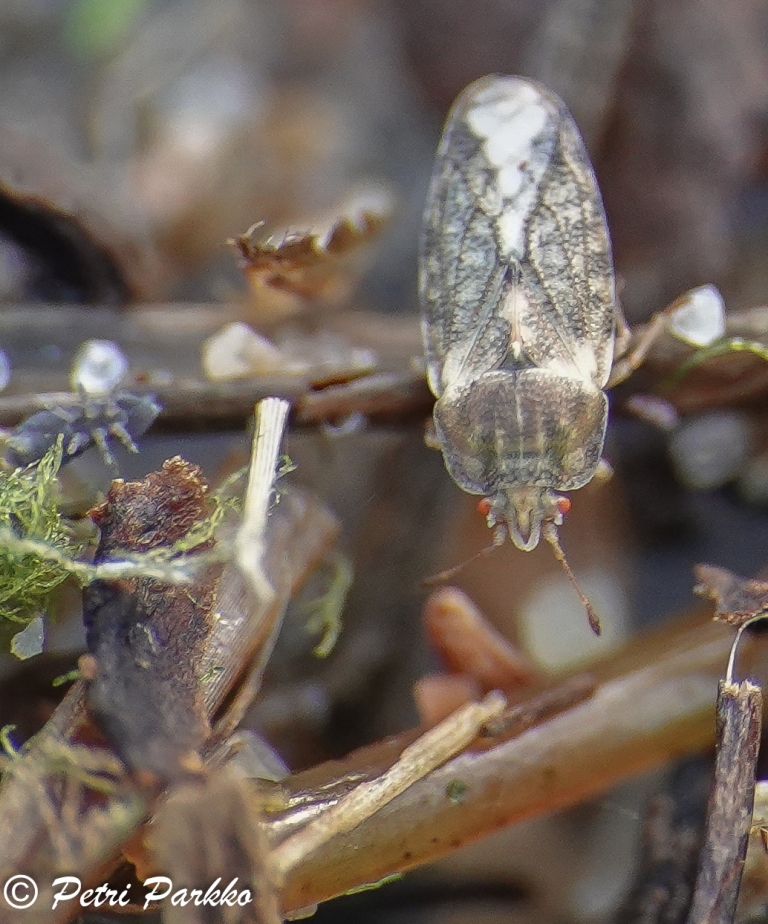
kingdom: Animalia
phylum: Arthropoda
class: Insecta
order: Hemiptera
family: Piesmatidae
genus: Parapiesma
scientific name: Parapiesma quadratum
